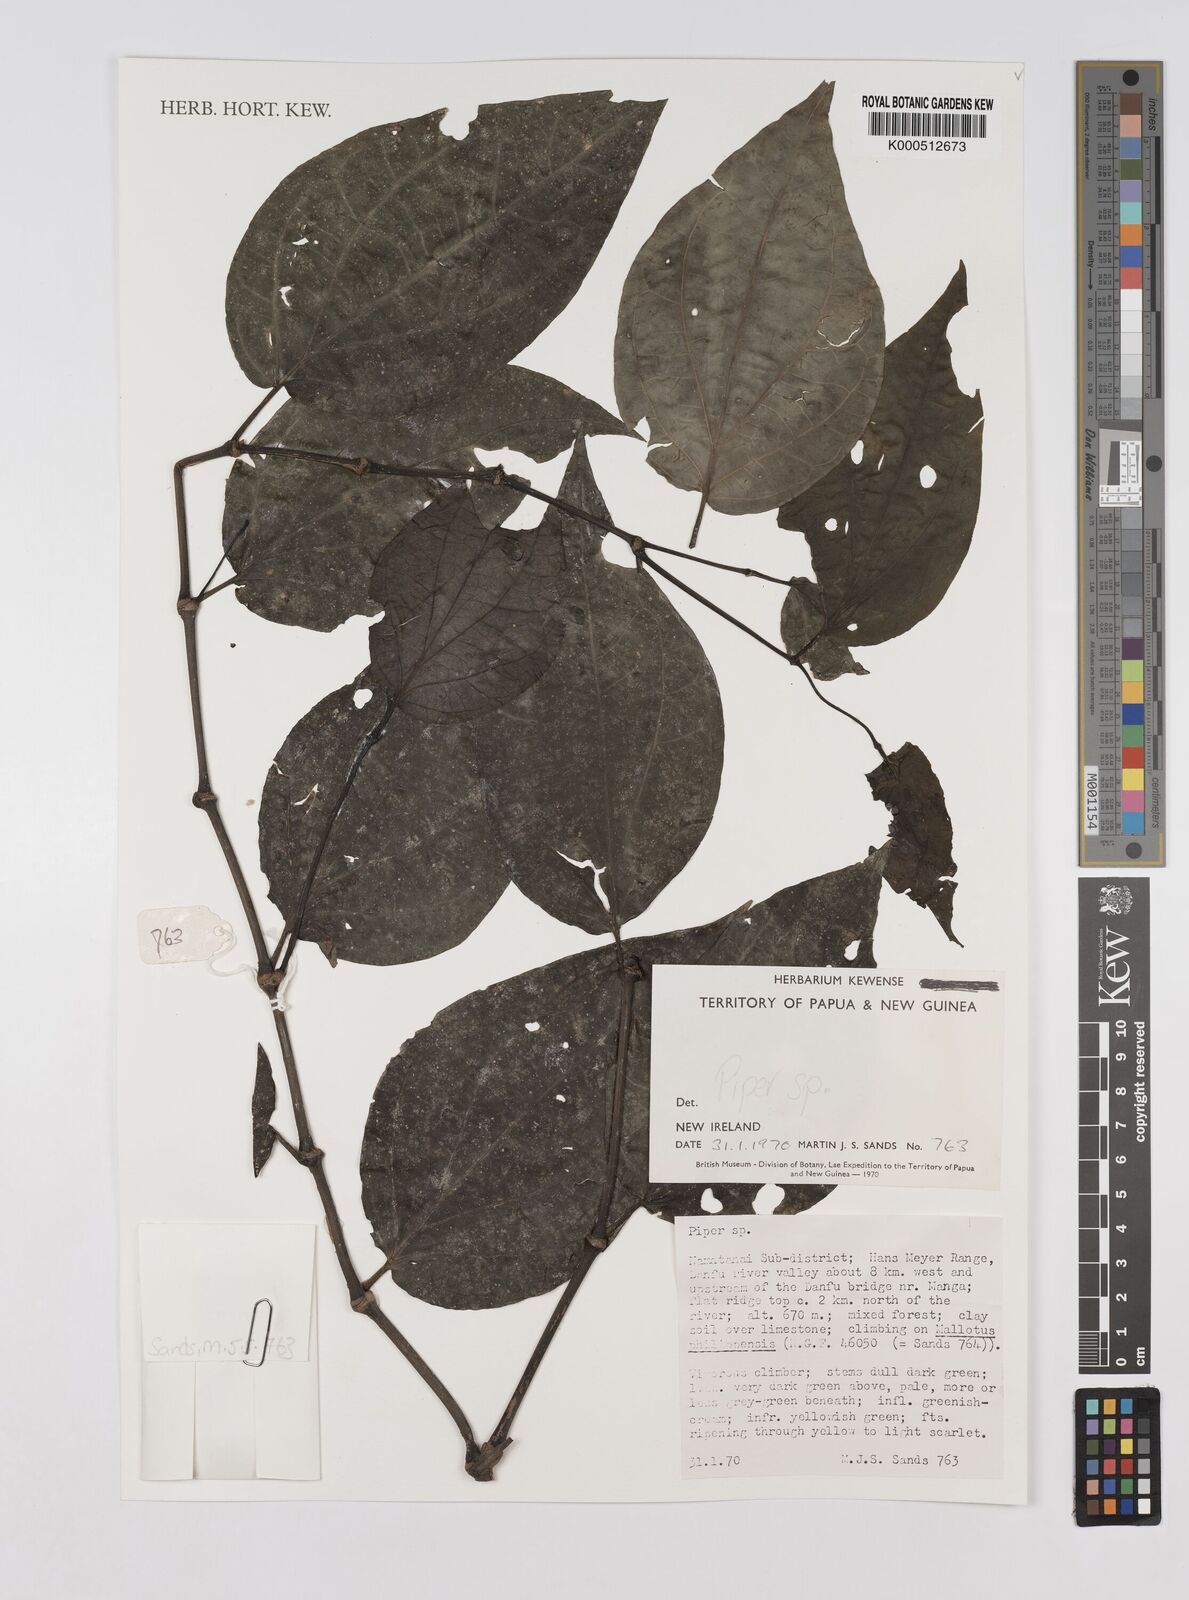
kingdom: Plantae
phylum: Tracheophyta
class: Magnoliopsida
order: Piperales
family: Piperaceae
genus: Piper
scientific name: Piper
